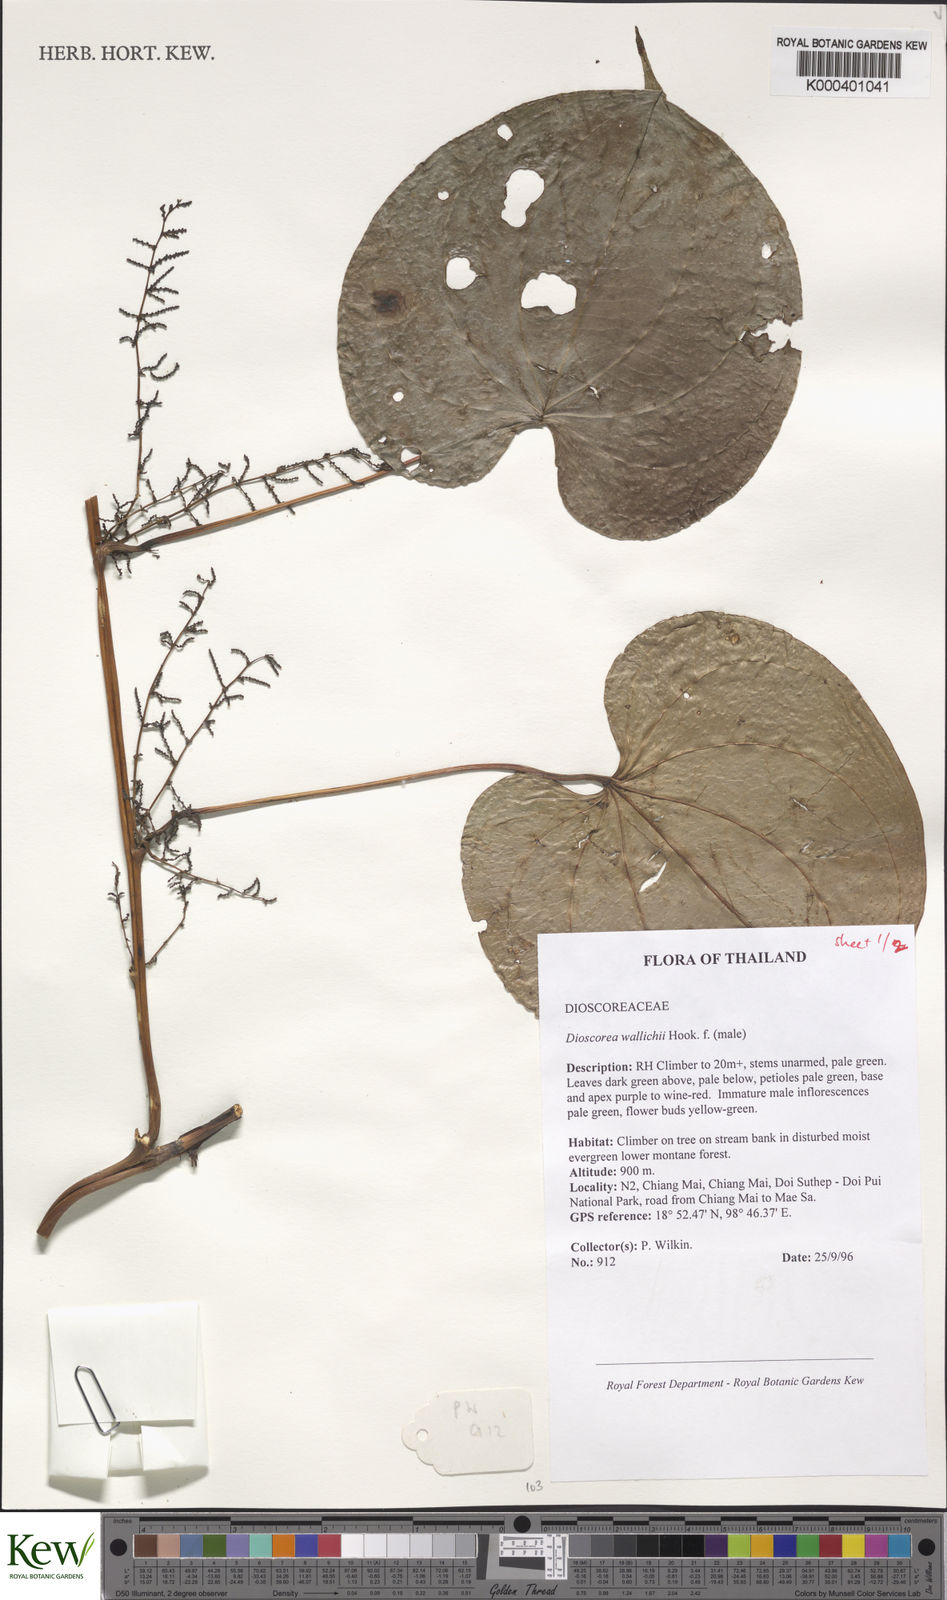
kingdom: Plantae
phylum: Tracheophyta
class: Liliopsida
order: Dioscoreales
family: Dioscoreaceae
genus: Dioscorea
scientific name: Dioscorea wallichii
